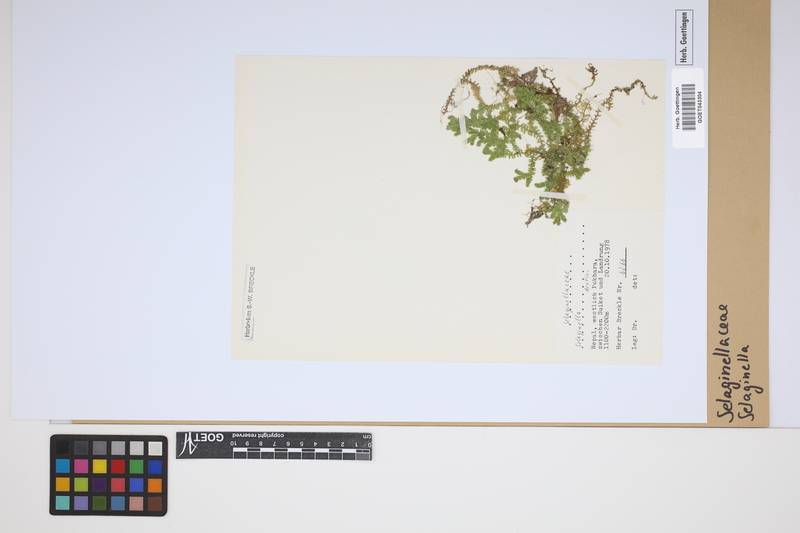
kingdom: Plantae
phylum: Tracheophyta
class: Lycopodiopsida
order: Selaginellales
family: Selaginellaceae
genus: Selaginella
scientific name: Selaginella
